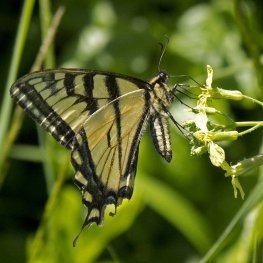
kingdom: Animalia
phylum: Arthropoda
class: Insecta
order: Lepidoptera
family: Papilionidae
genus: Pterourus
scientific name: Pterourus canadensis
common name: Canadian Tiger Swallowtail
